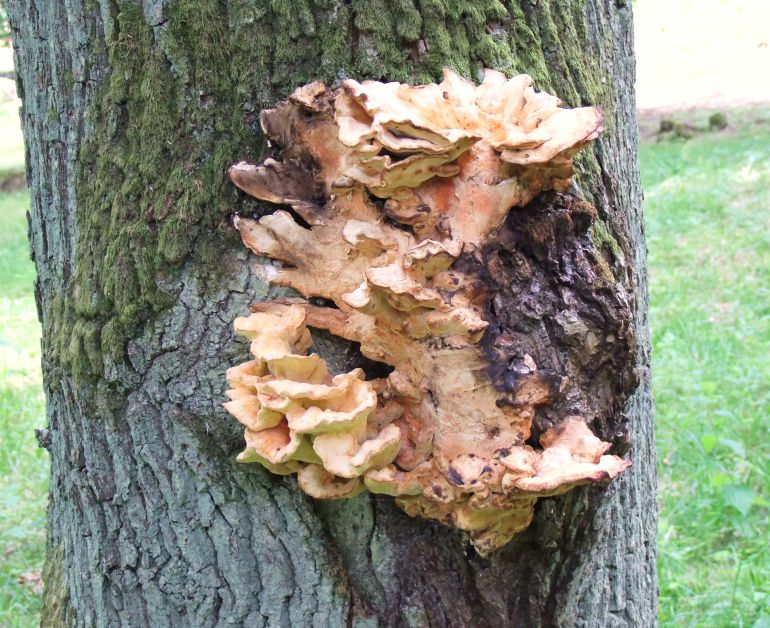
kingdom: Fungi
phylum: Basidiomycota
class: Agaricomycetes
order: Polyporales
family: Laetiporaceae
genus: Laetiporus
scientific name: Laetiporus sulphureus
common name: svovlporesvamp
